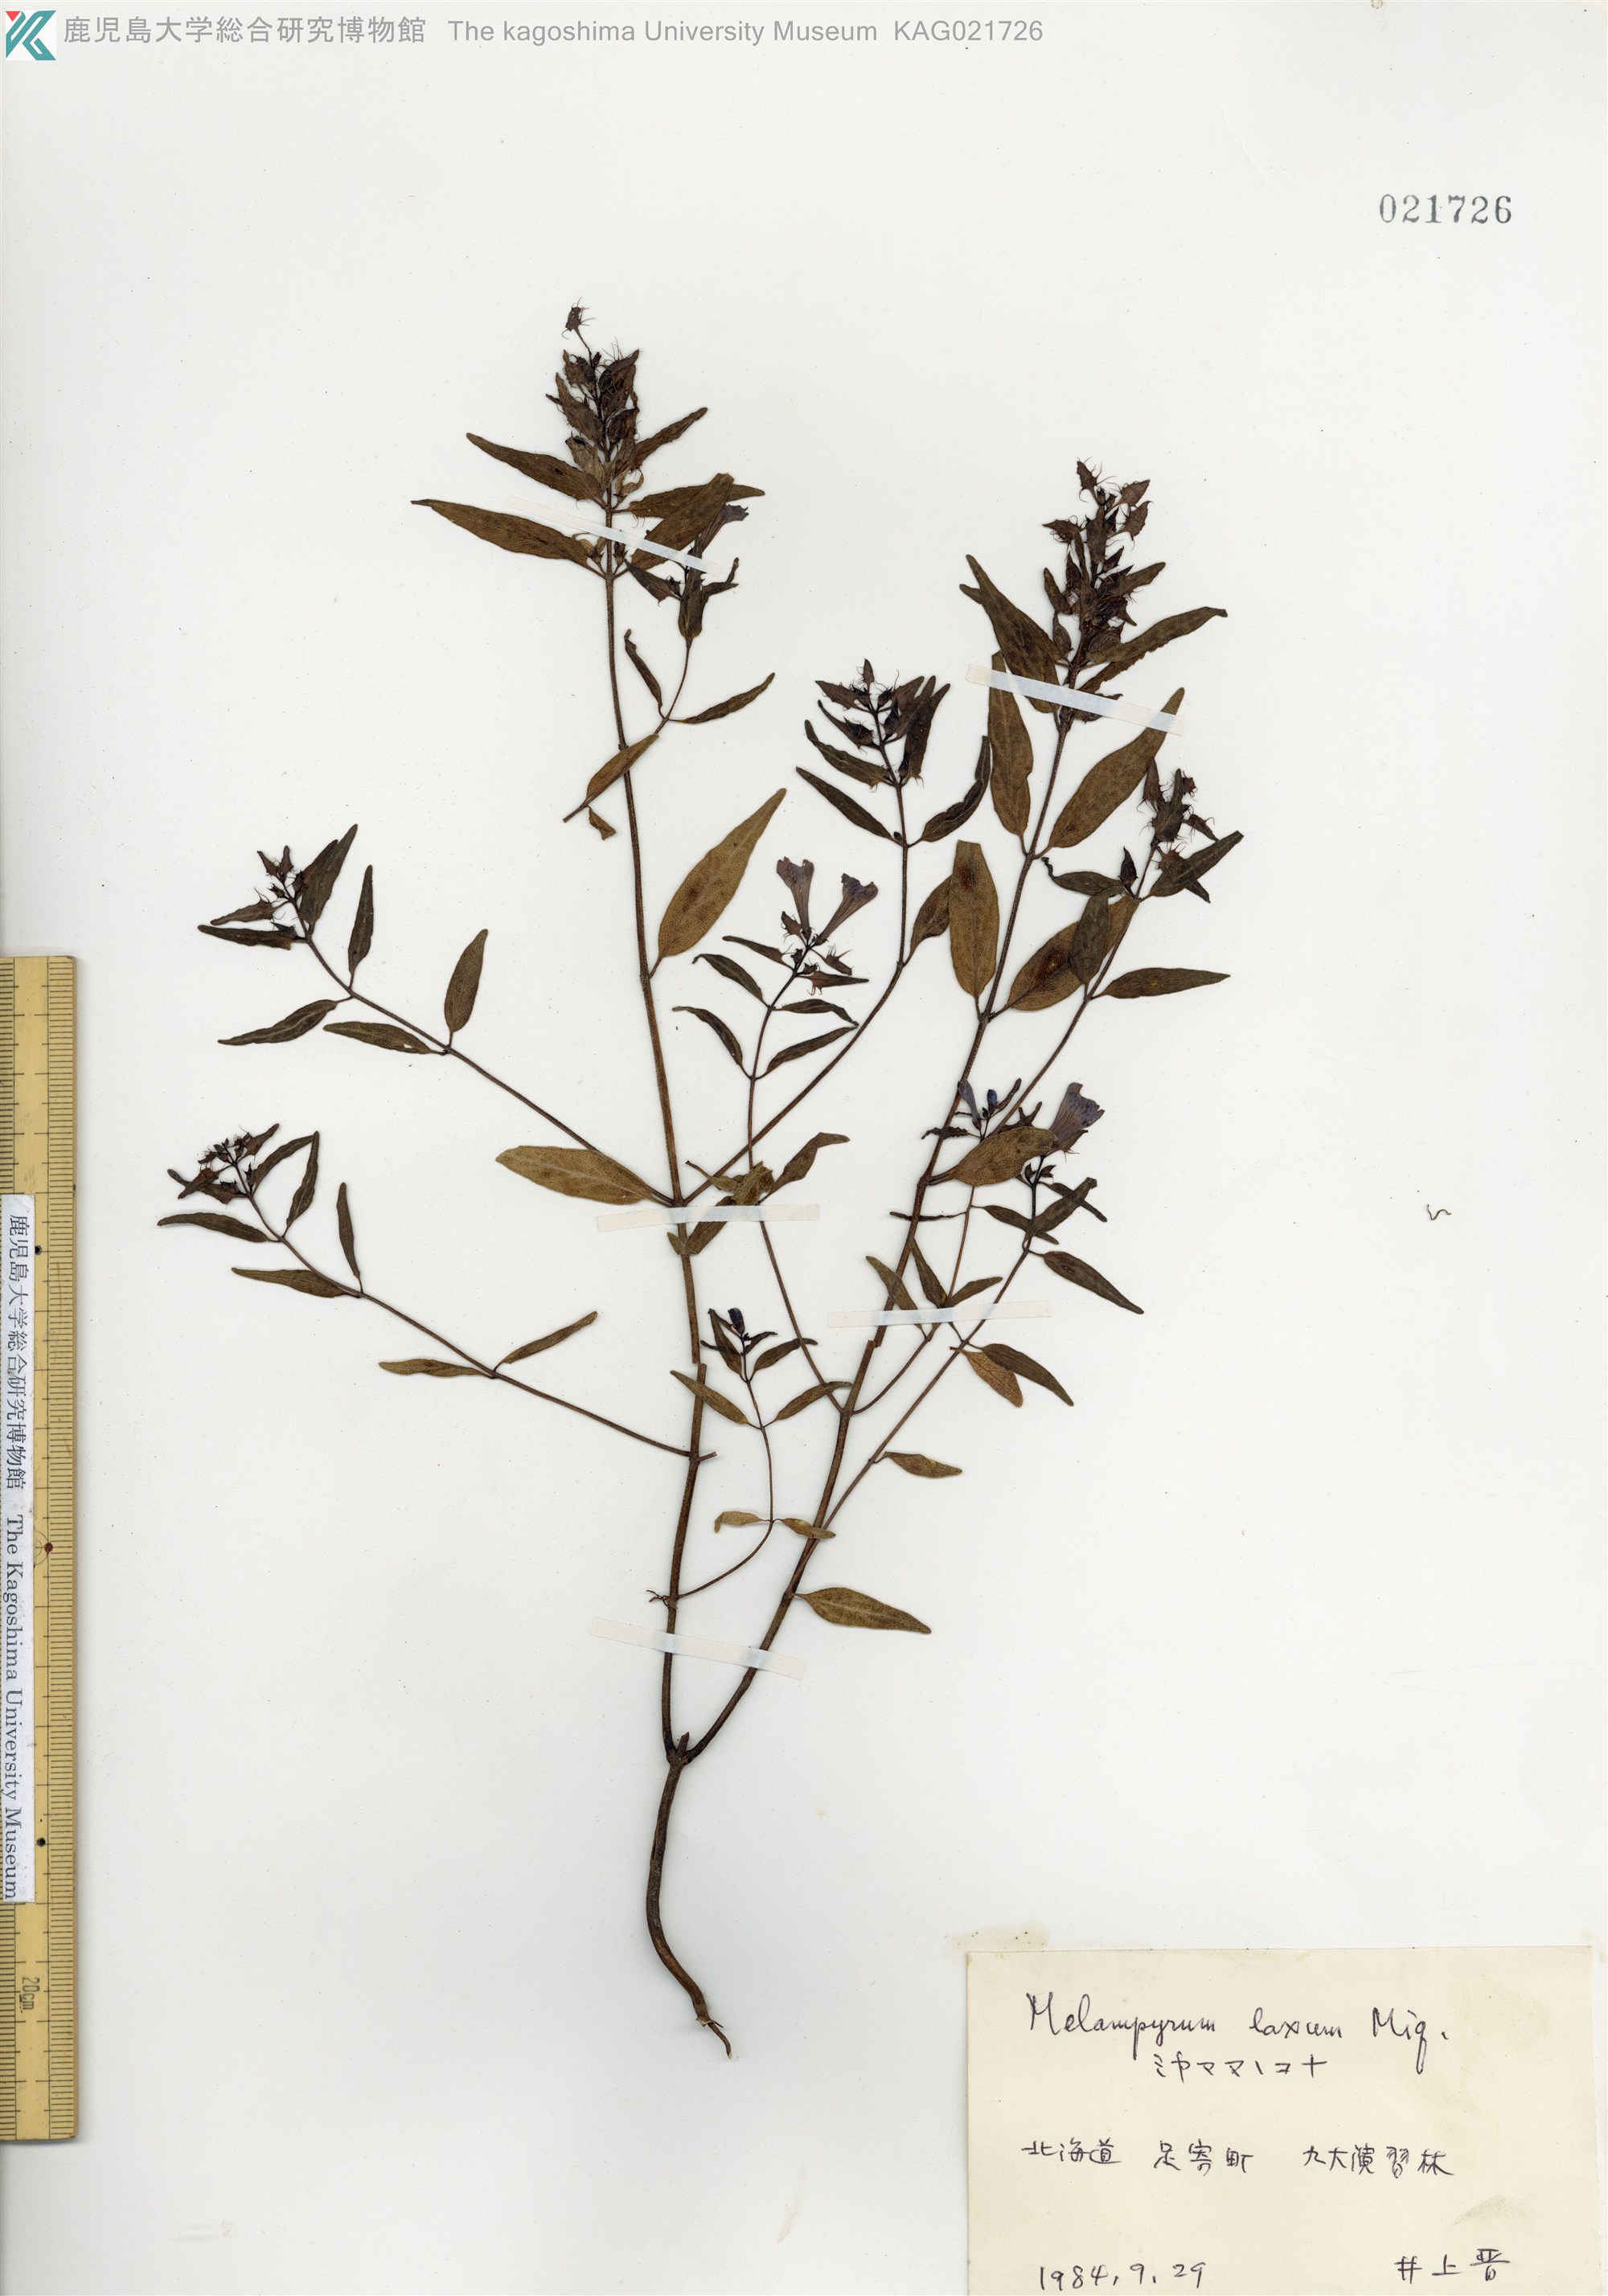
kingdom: Plantae
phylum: Tracheophyta
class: Magnoliopsida
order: Lamiales
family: Orobanchaceae
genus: Melampyrum
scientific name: Melampyrum yezoense
